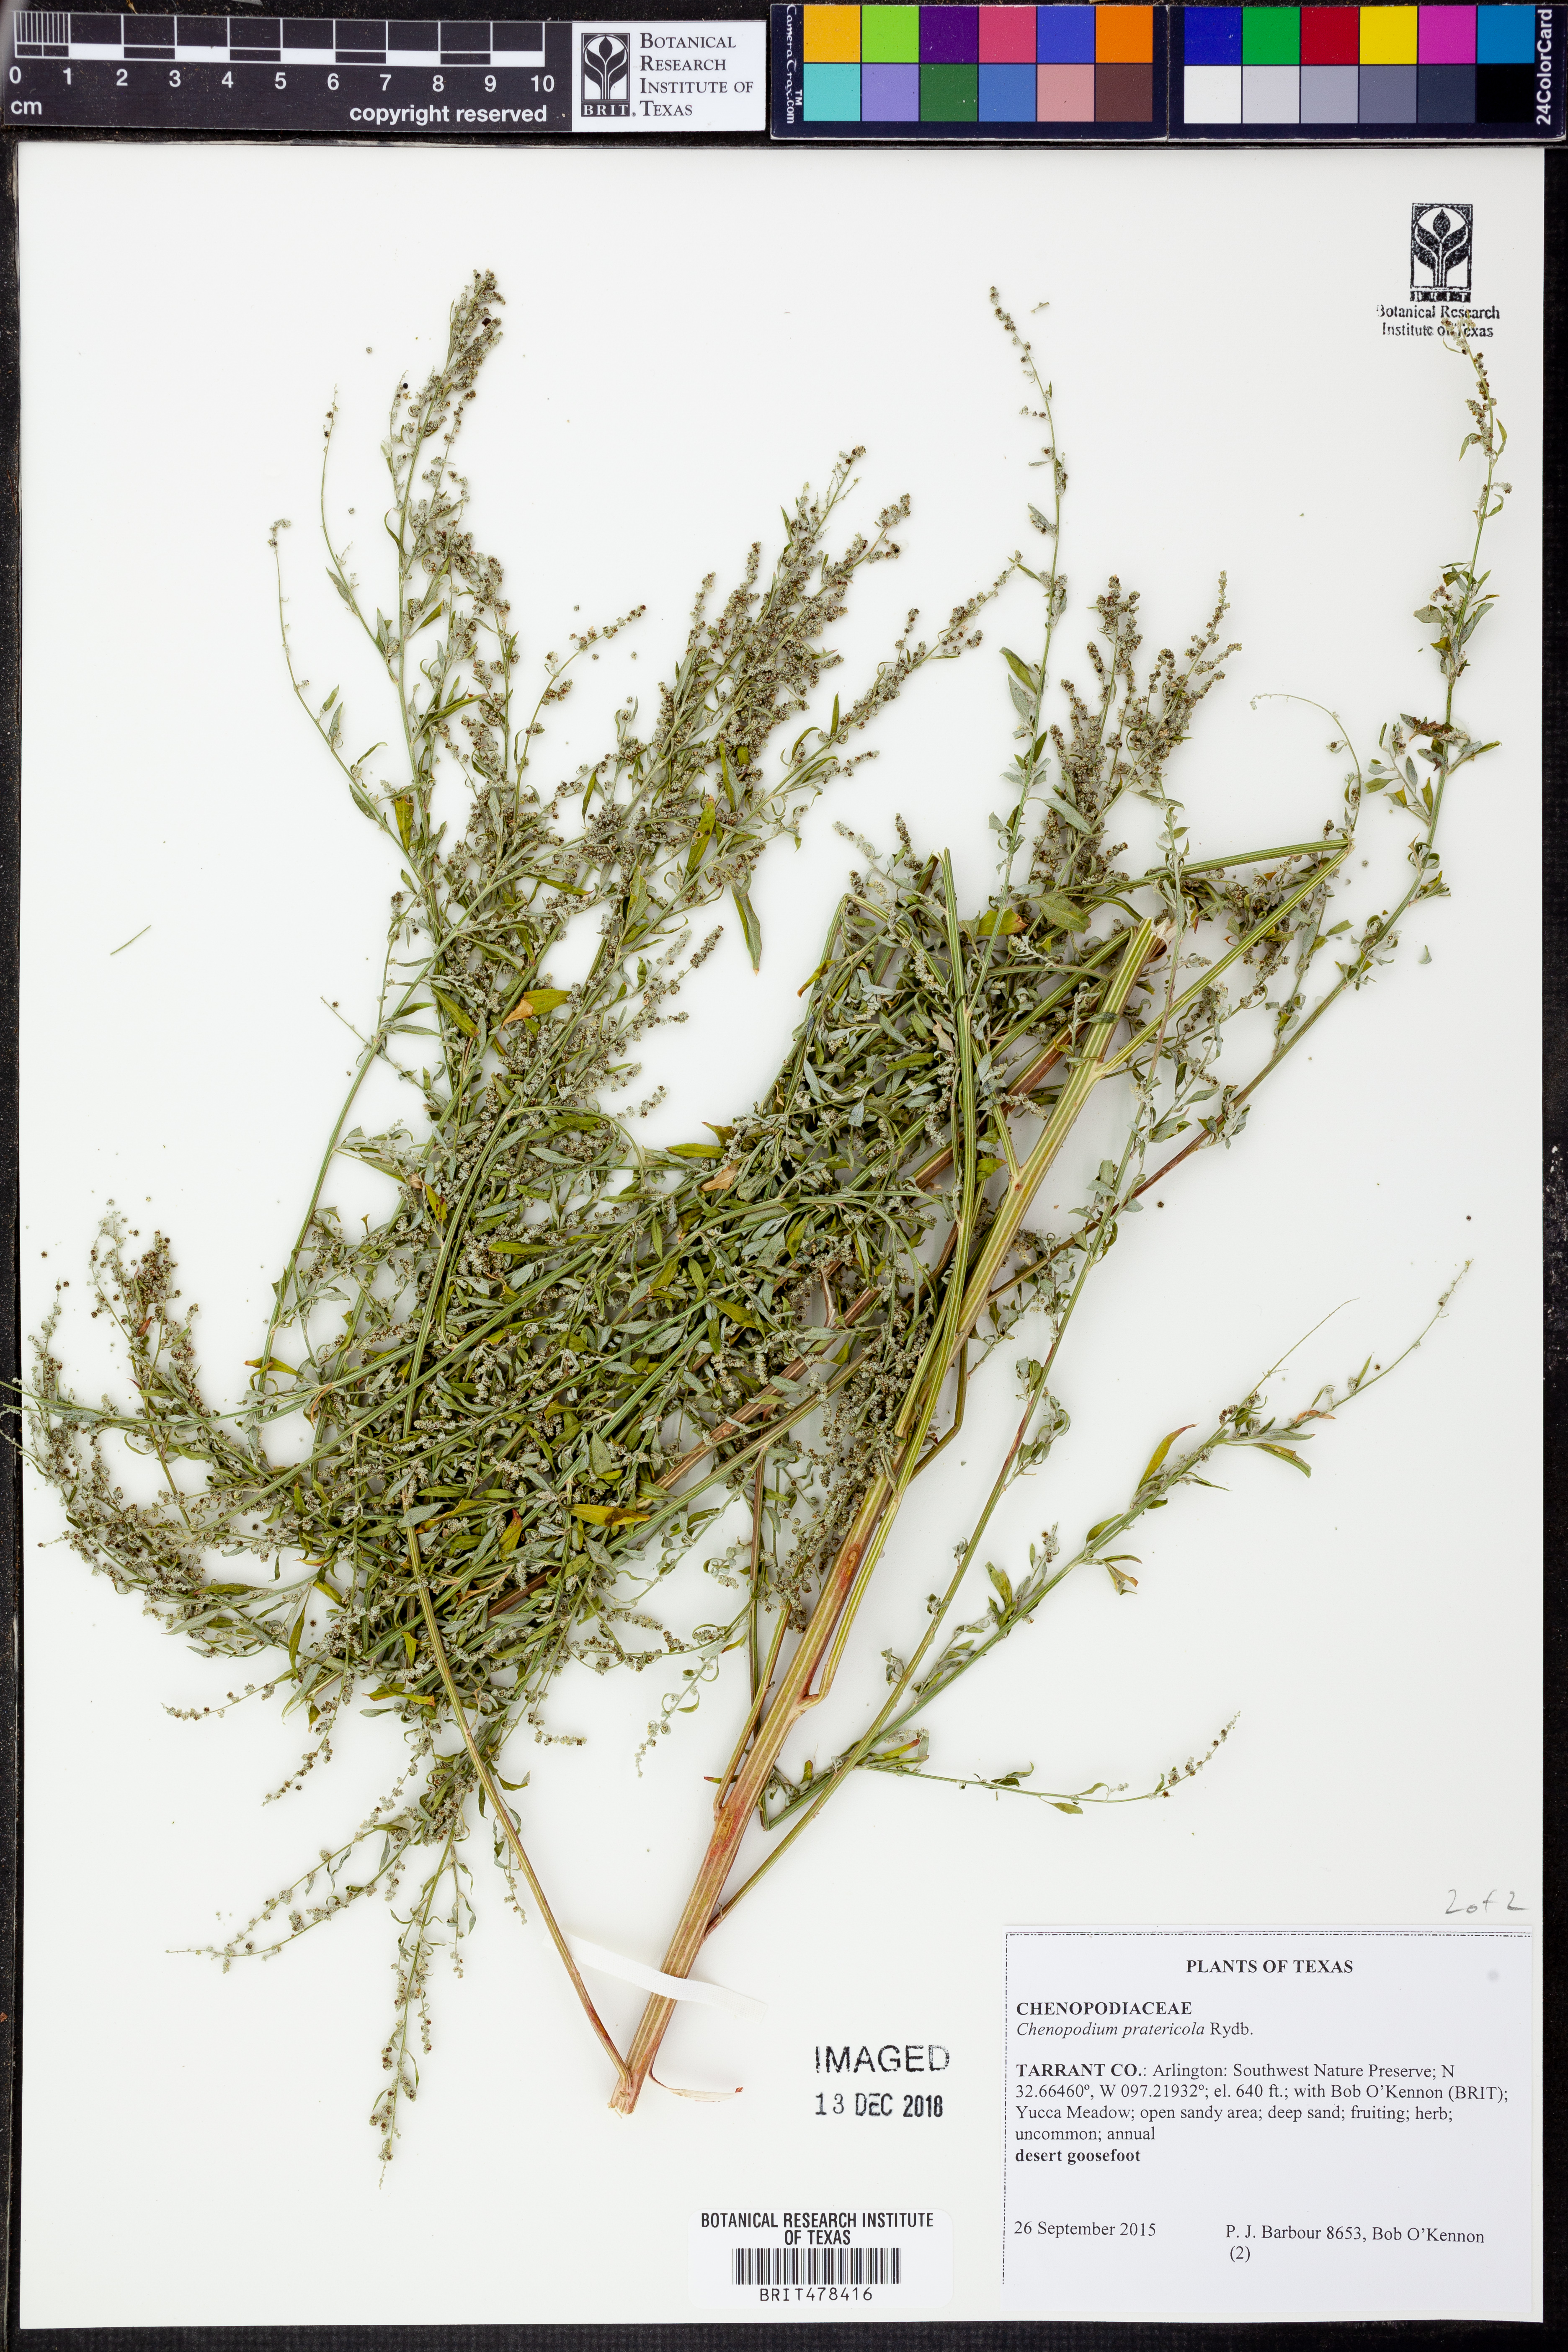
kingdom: Plantae
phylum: Tracheophyta
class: Magnoliopsida
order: Caryophyllales
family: Amaranthaceae
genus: Chenopodium
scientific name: Chenopodium pratericola
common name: Desert goosefoot
